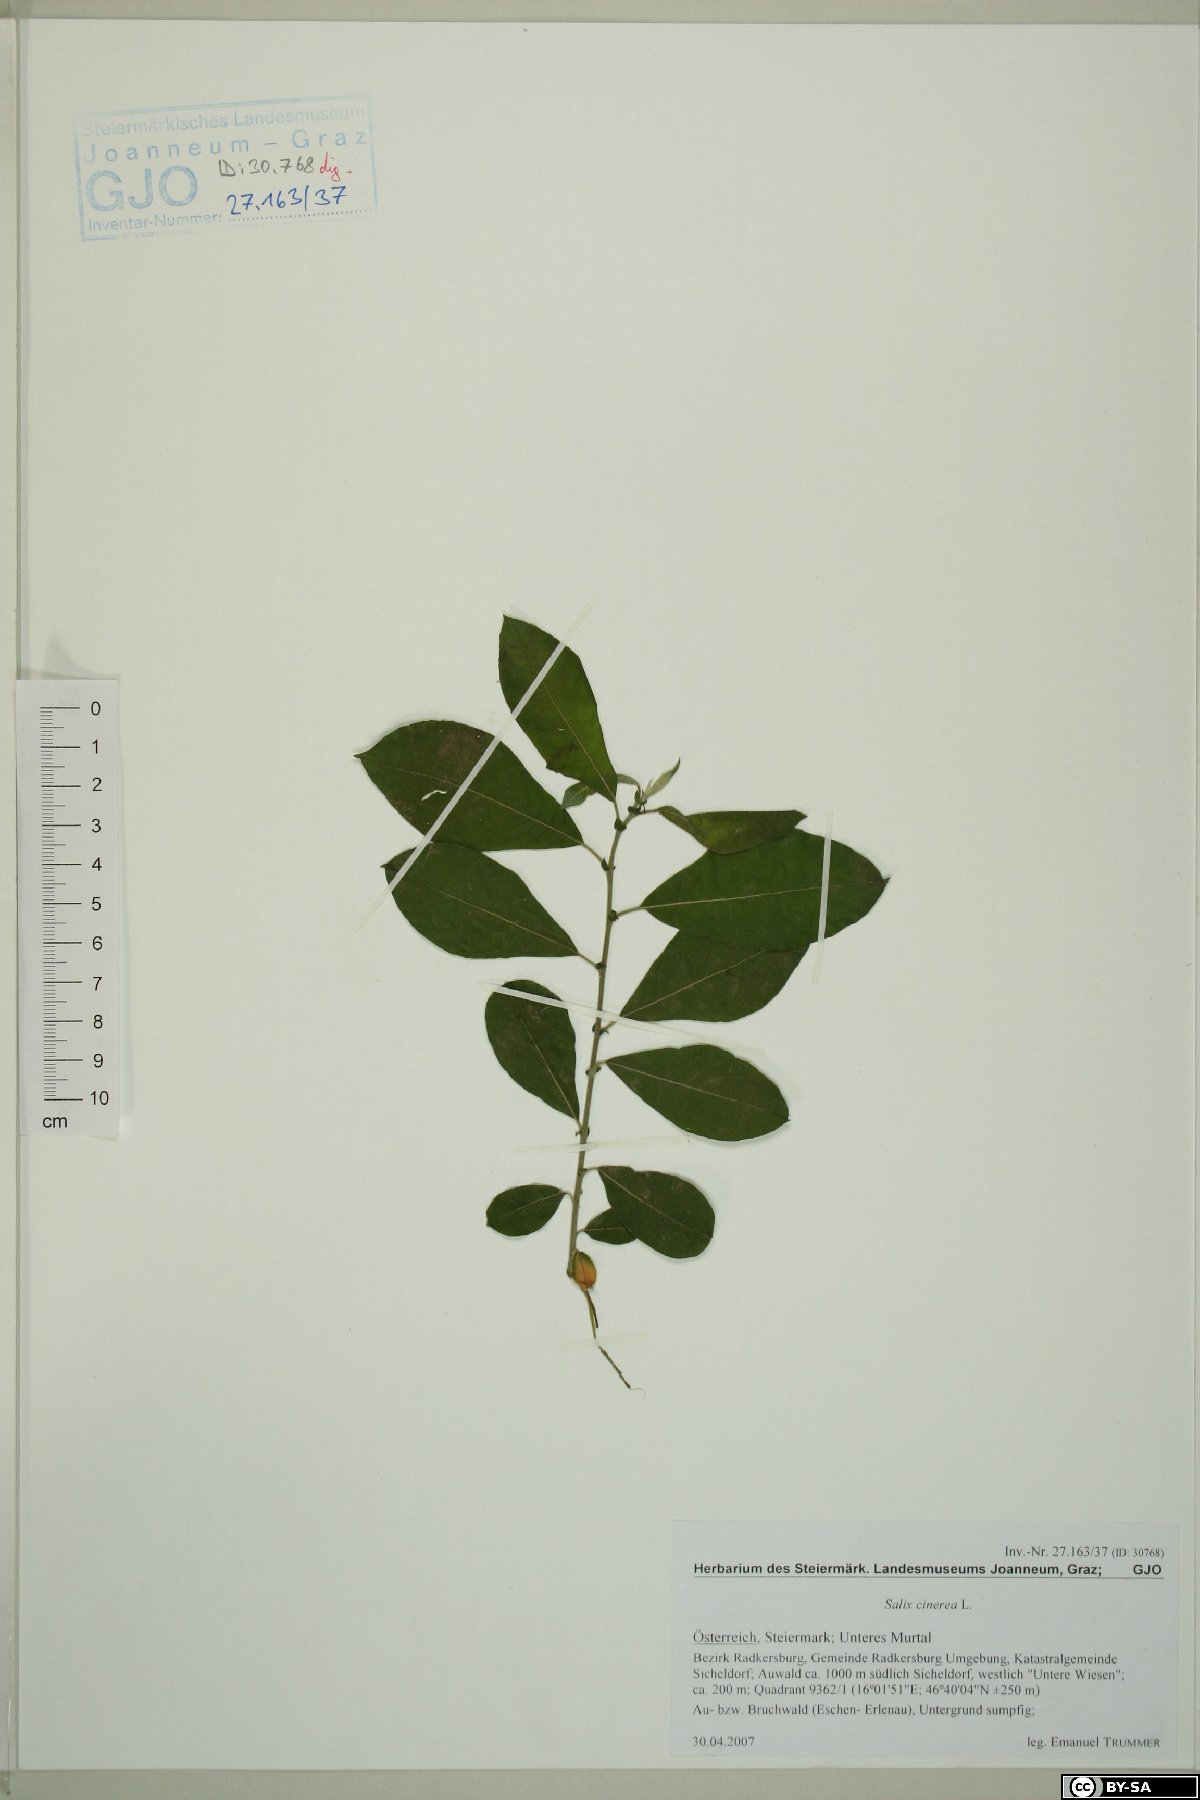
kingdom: Plantae
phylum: Tracheophyta
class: Magnoliopsida
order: Malpighiales
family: Salicaceae
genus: Salix
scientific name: Salix cinerea
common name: Common sallow
